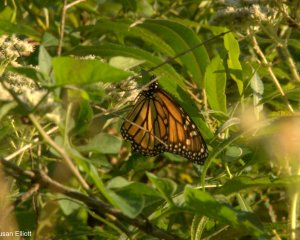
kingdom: Animalia
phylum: Arthropoda
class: Insecta
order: Lepidoptera
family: Nymphalidae
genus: Danaus
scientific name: Danaus plexippus
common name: Monarch
